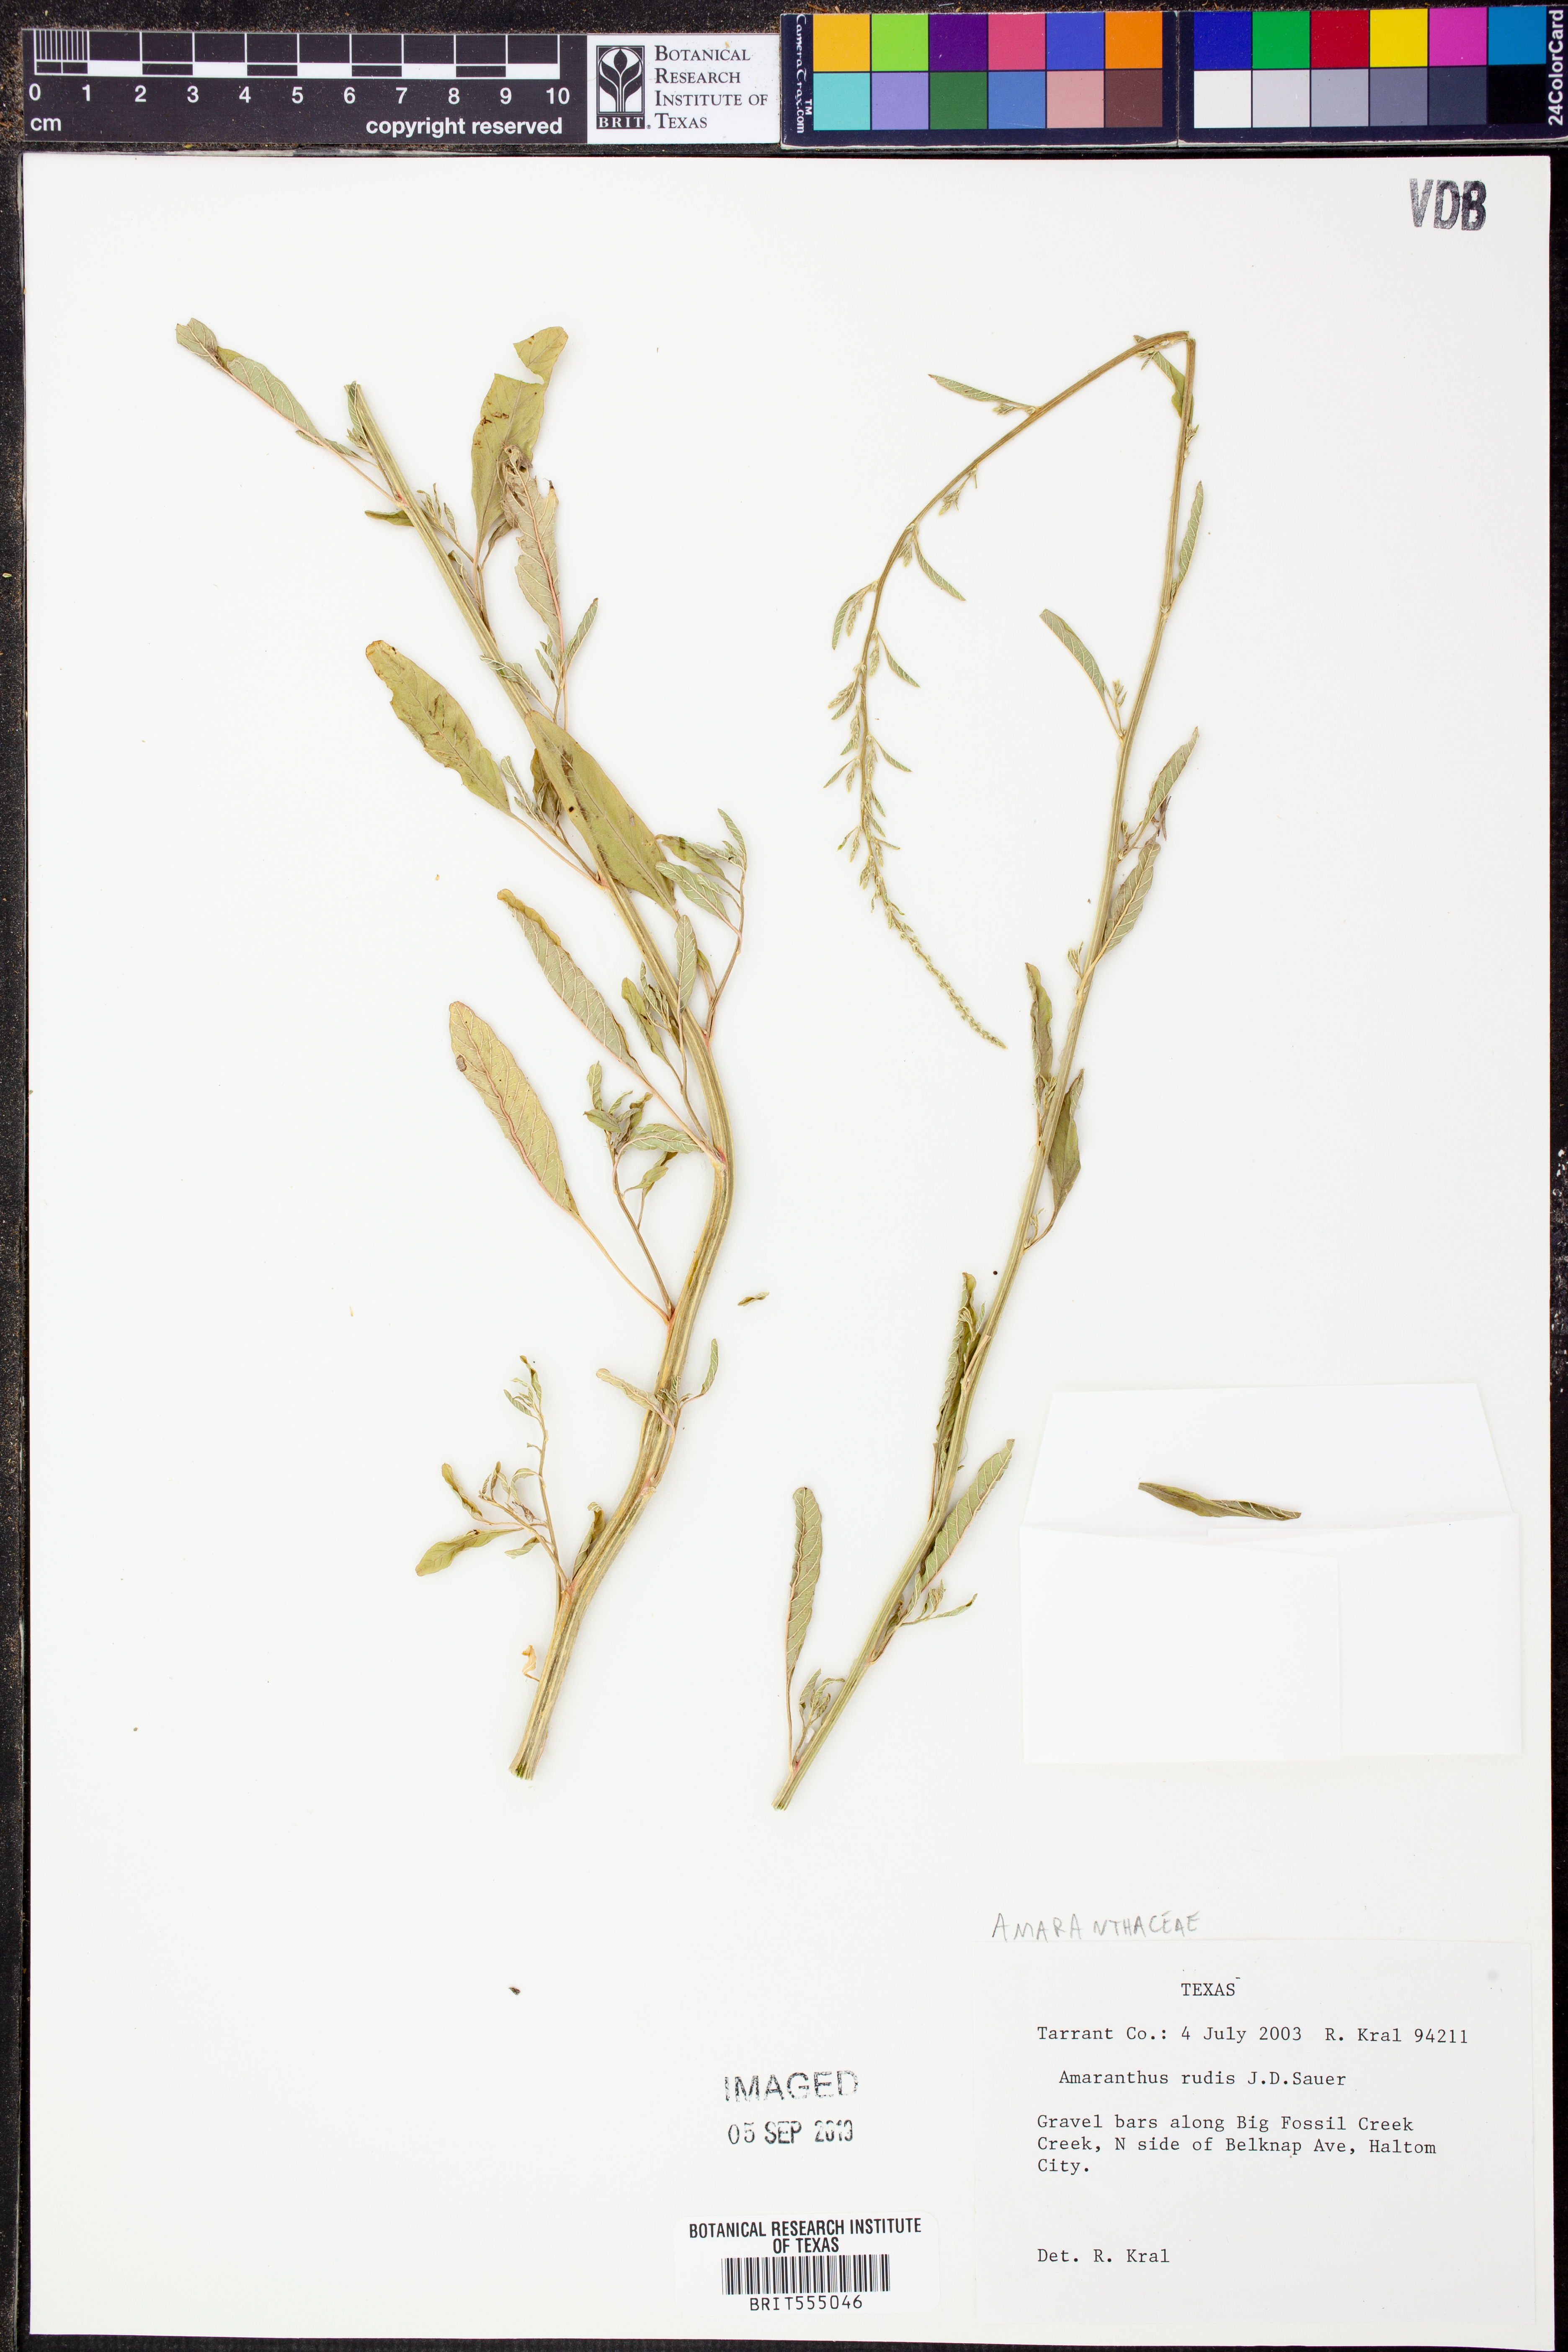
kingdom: Plantae
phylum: Tracheophyta
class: Magnoliopsida
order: Caryophyllales
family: Amaranthaceae
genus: Amaranthus
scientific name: Amaranthus tuberculatus
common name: Rough-fruit amaranth
